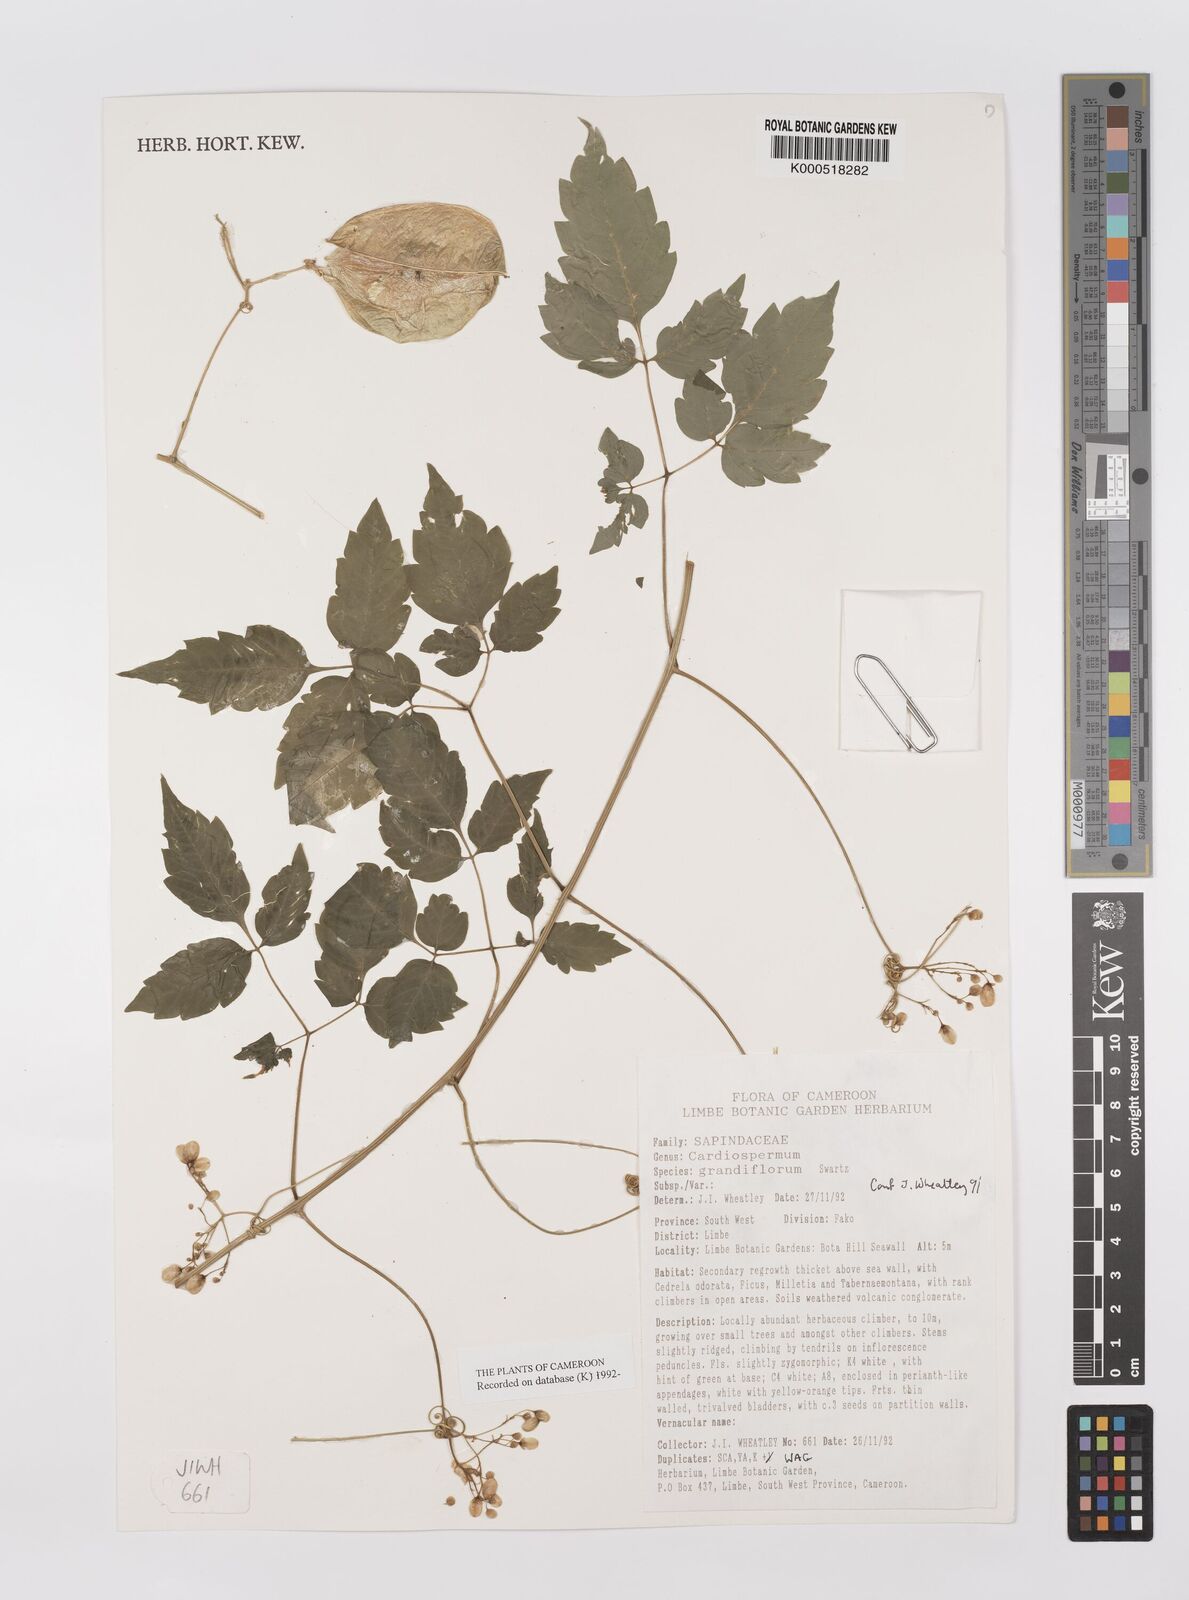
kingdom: Plantae
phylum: Tracheophyta
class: Magnoliopsida
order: Sapindales
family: Sapindaceae
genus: Cardiospermum
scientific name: Cardiospermum grandiflorum
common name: Balloon vine
